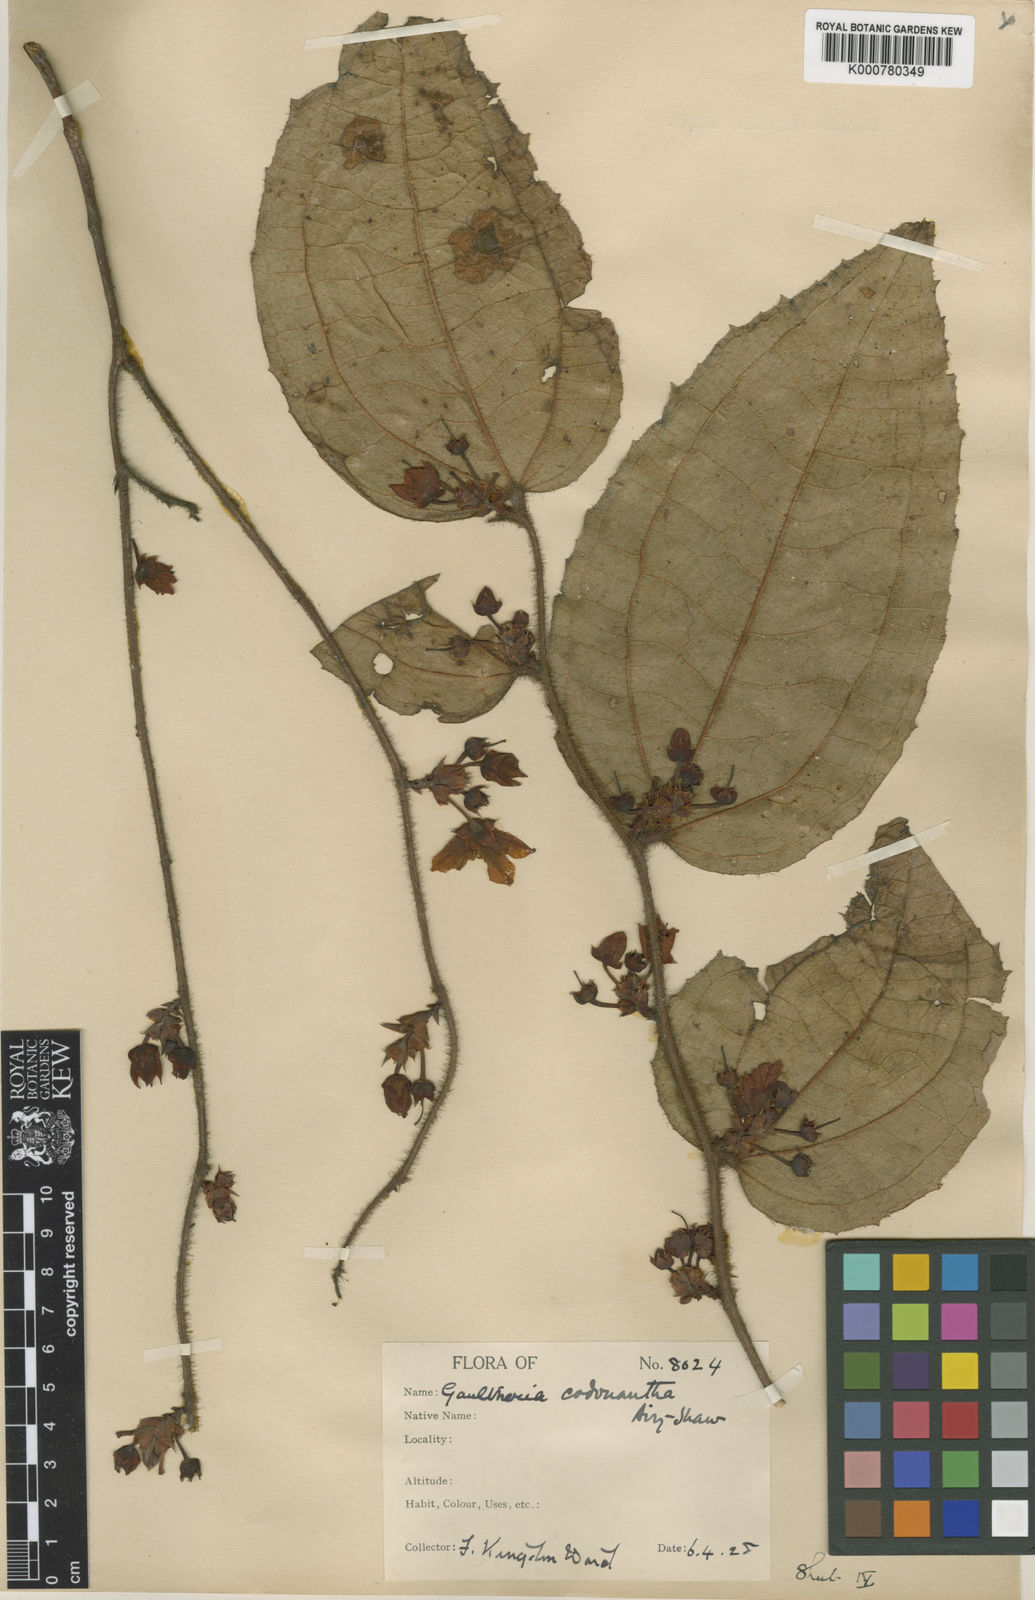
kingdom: Plantae
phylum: Tracheophyta
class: Magnoliopsida
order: Ericales
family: Ericaceae
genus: Gaultheria
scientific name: Gaultheria codonantha
